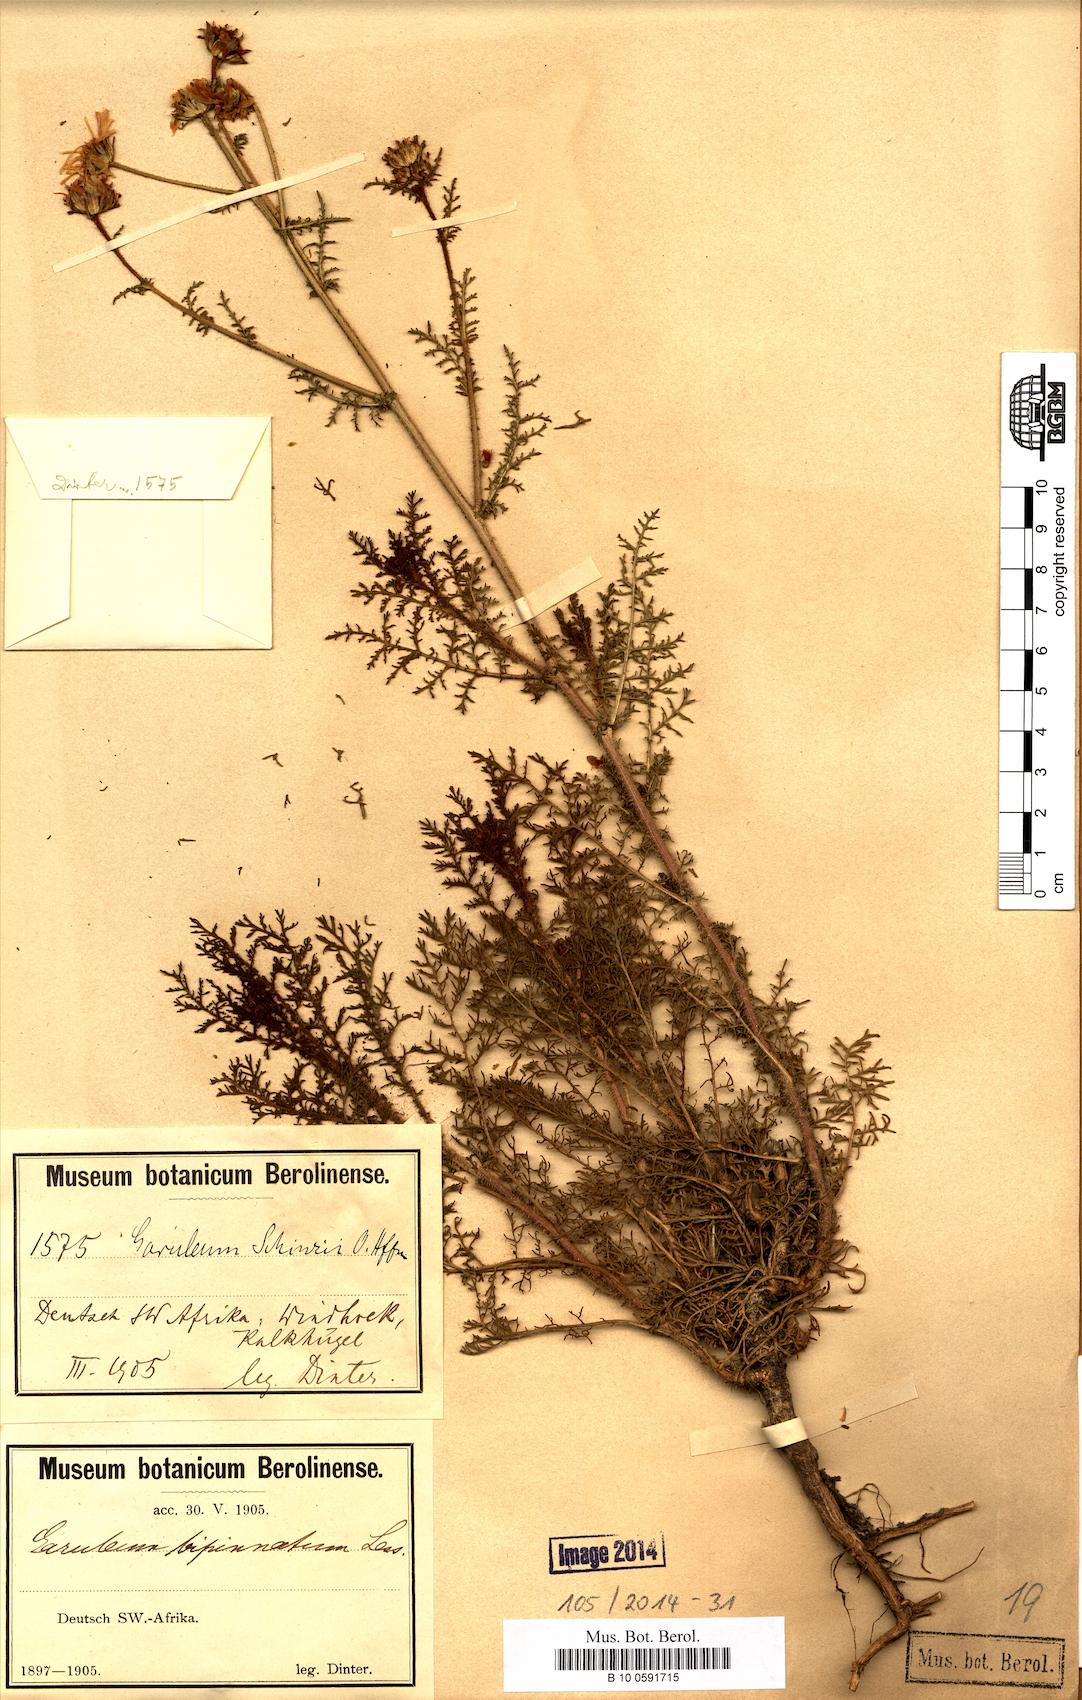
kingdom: Plantae
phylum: Tracheophyta
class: Magnoliopsida
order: Asterales
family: Asteraceae
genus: Garuleum
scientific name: Garuleum schinzii
